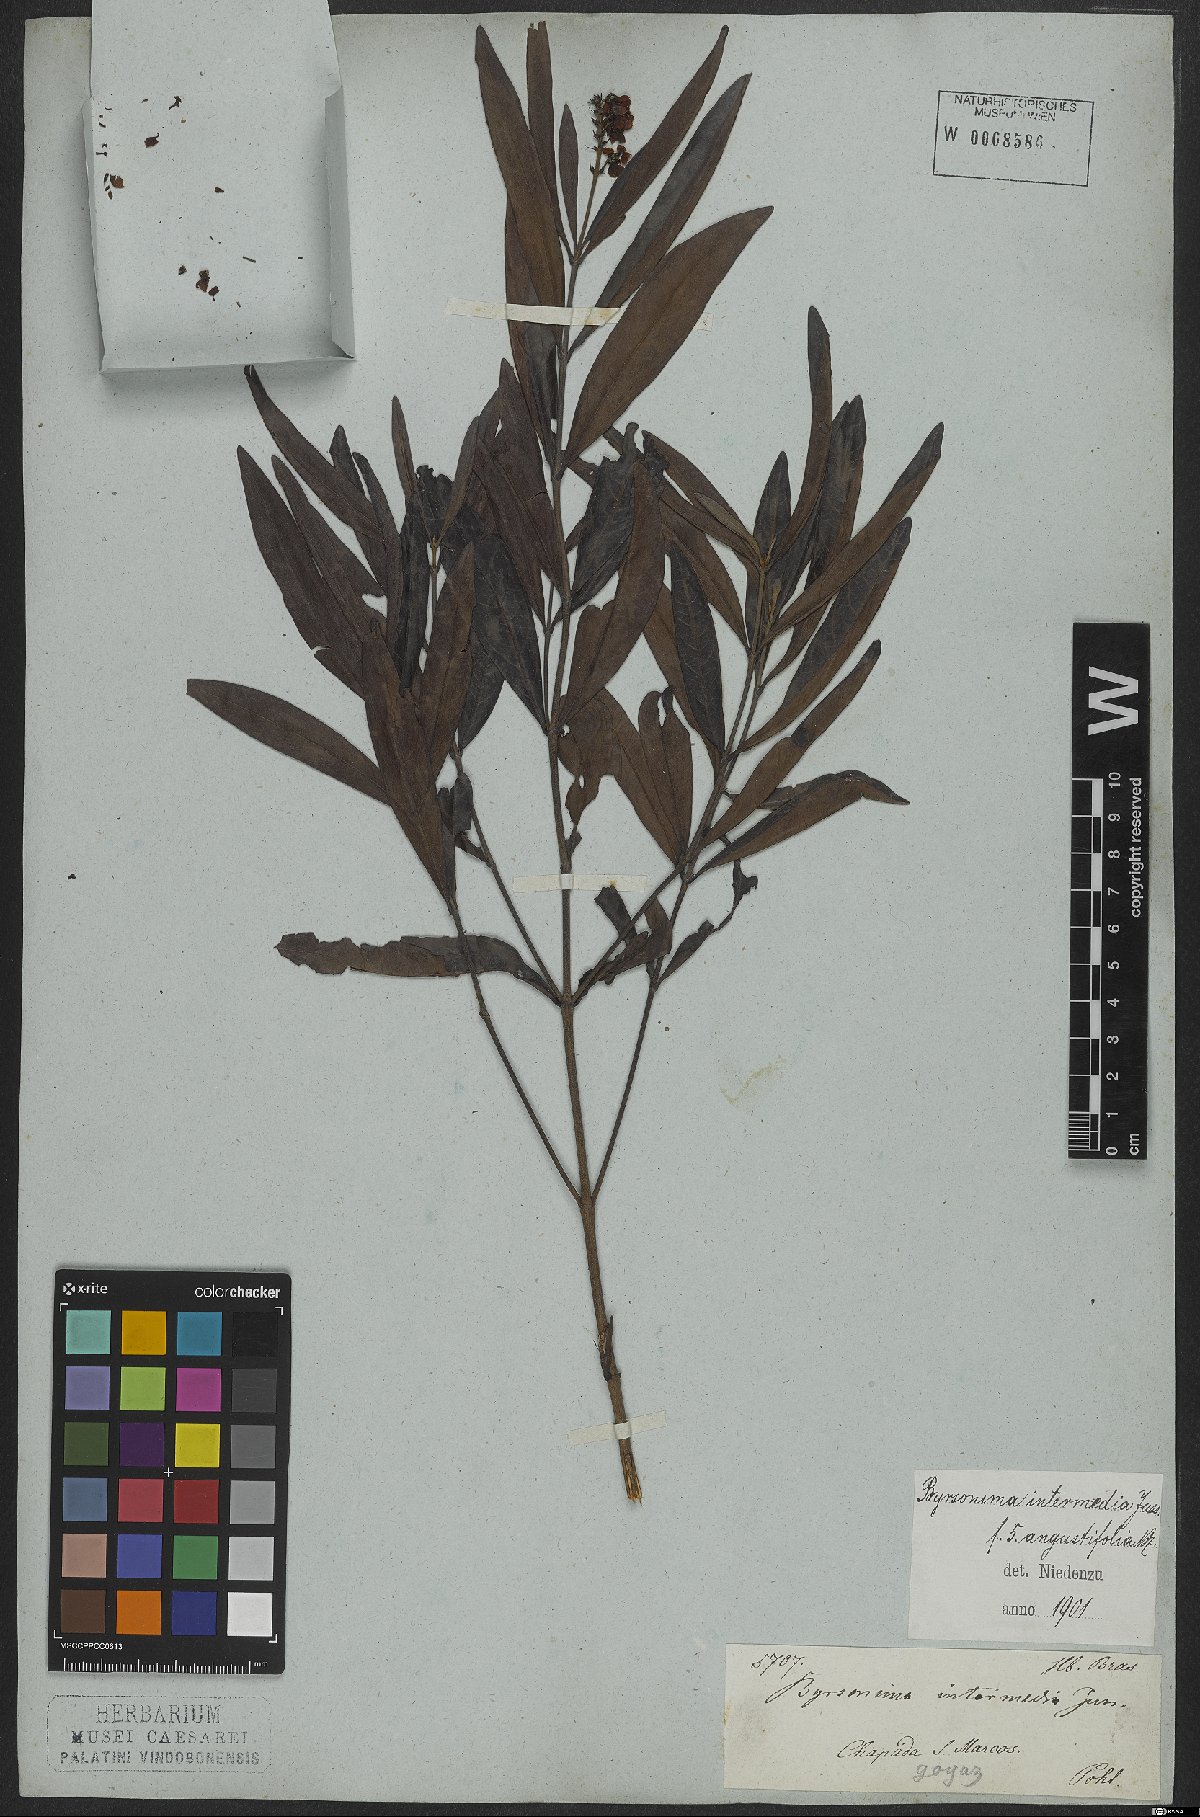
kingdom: Plantae
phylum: Tracheophyta
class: Magnoliopsida
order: Malpighiales
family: Malpighiaceae
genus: Byrsonima
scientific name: Byrsonima intermedia
